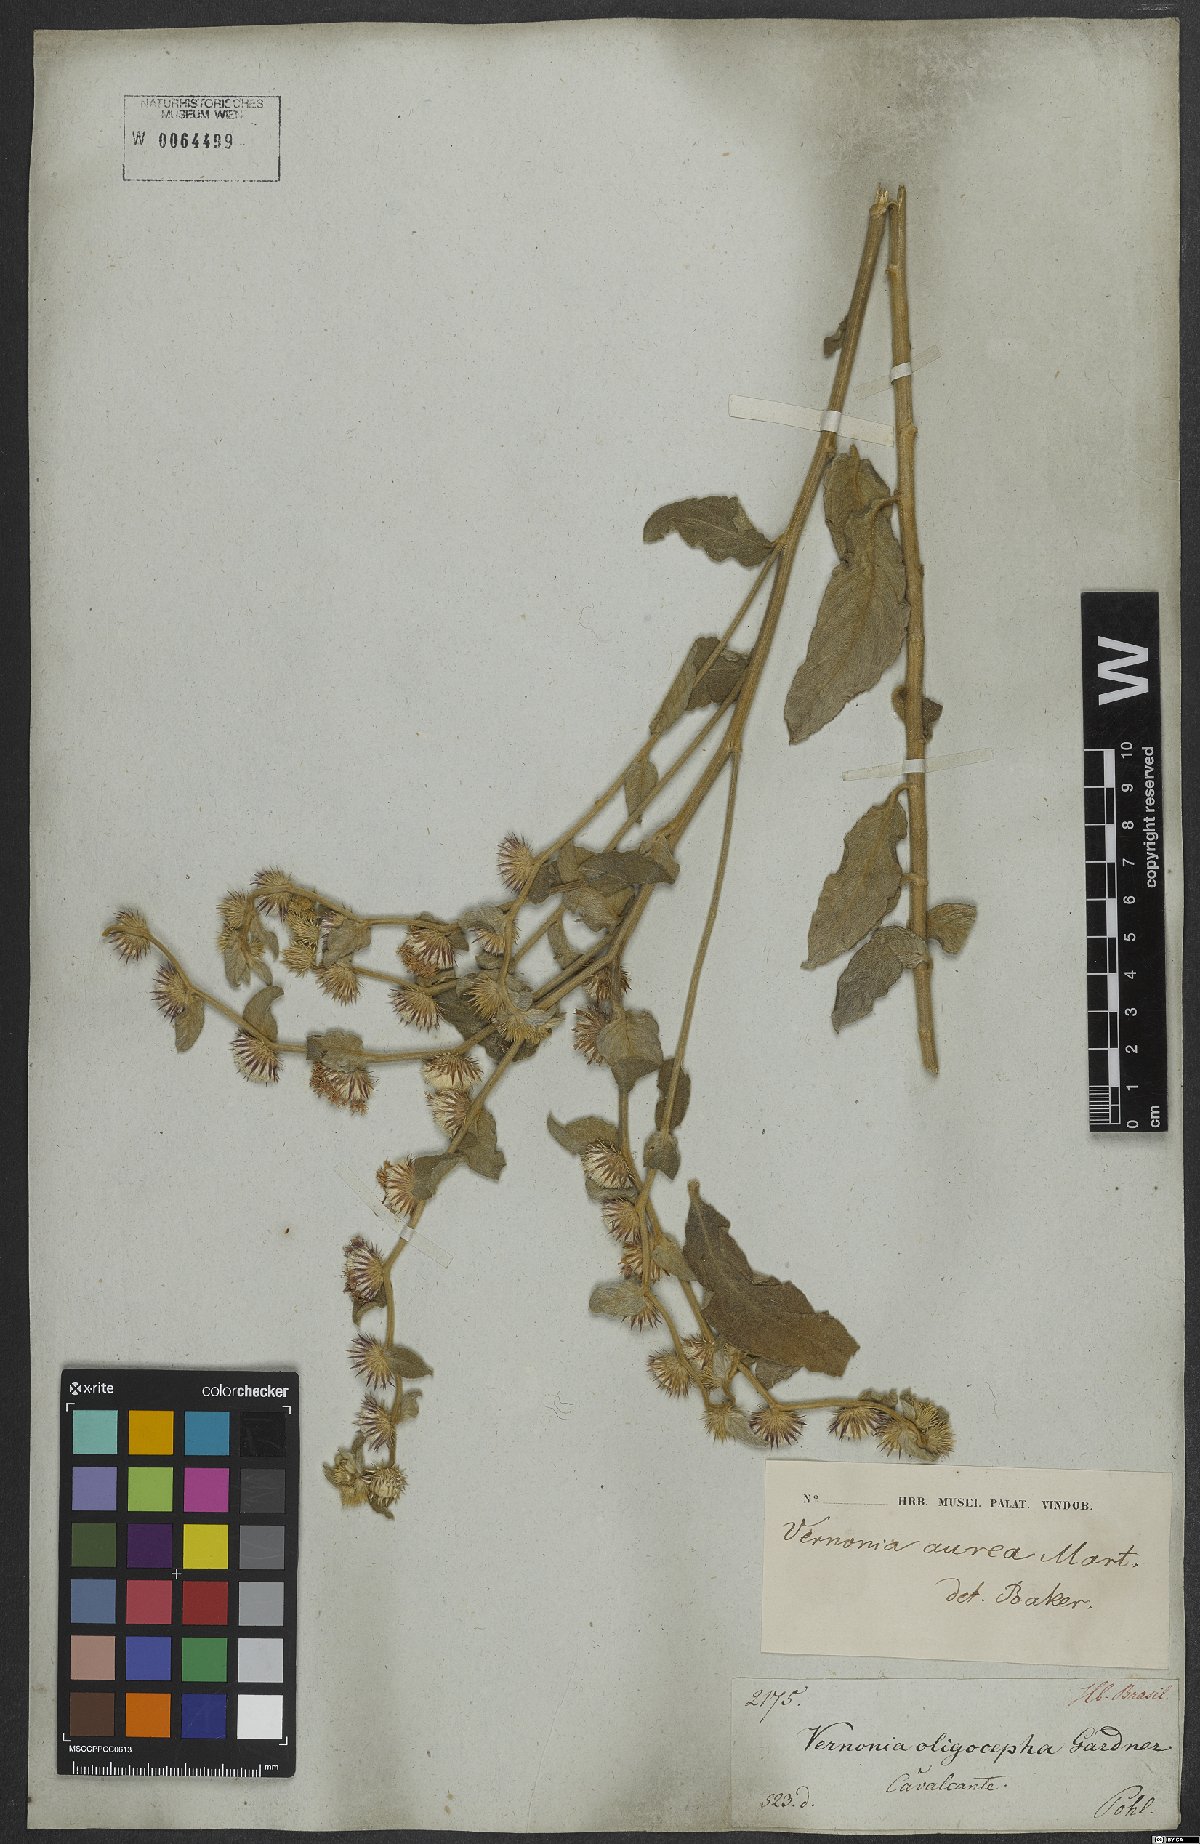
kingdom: Plantae
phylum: Tracheophyta
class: Magnoliopsida
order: Asterales
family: Asteraceae
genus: Lepidaploa
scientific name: Lepidaploa aurea
